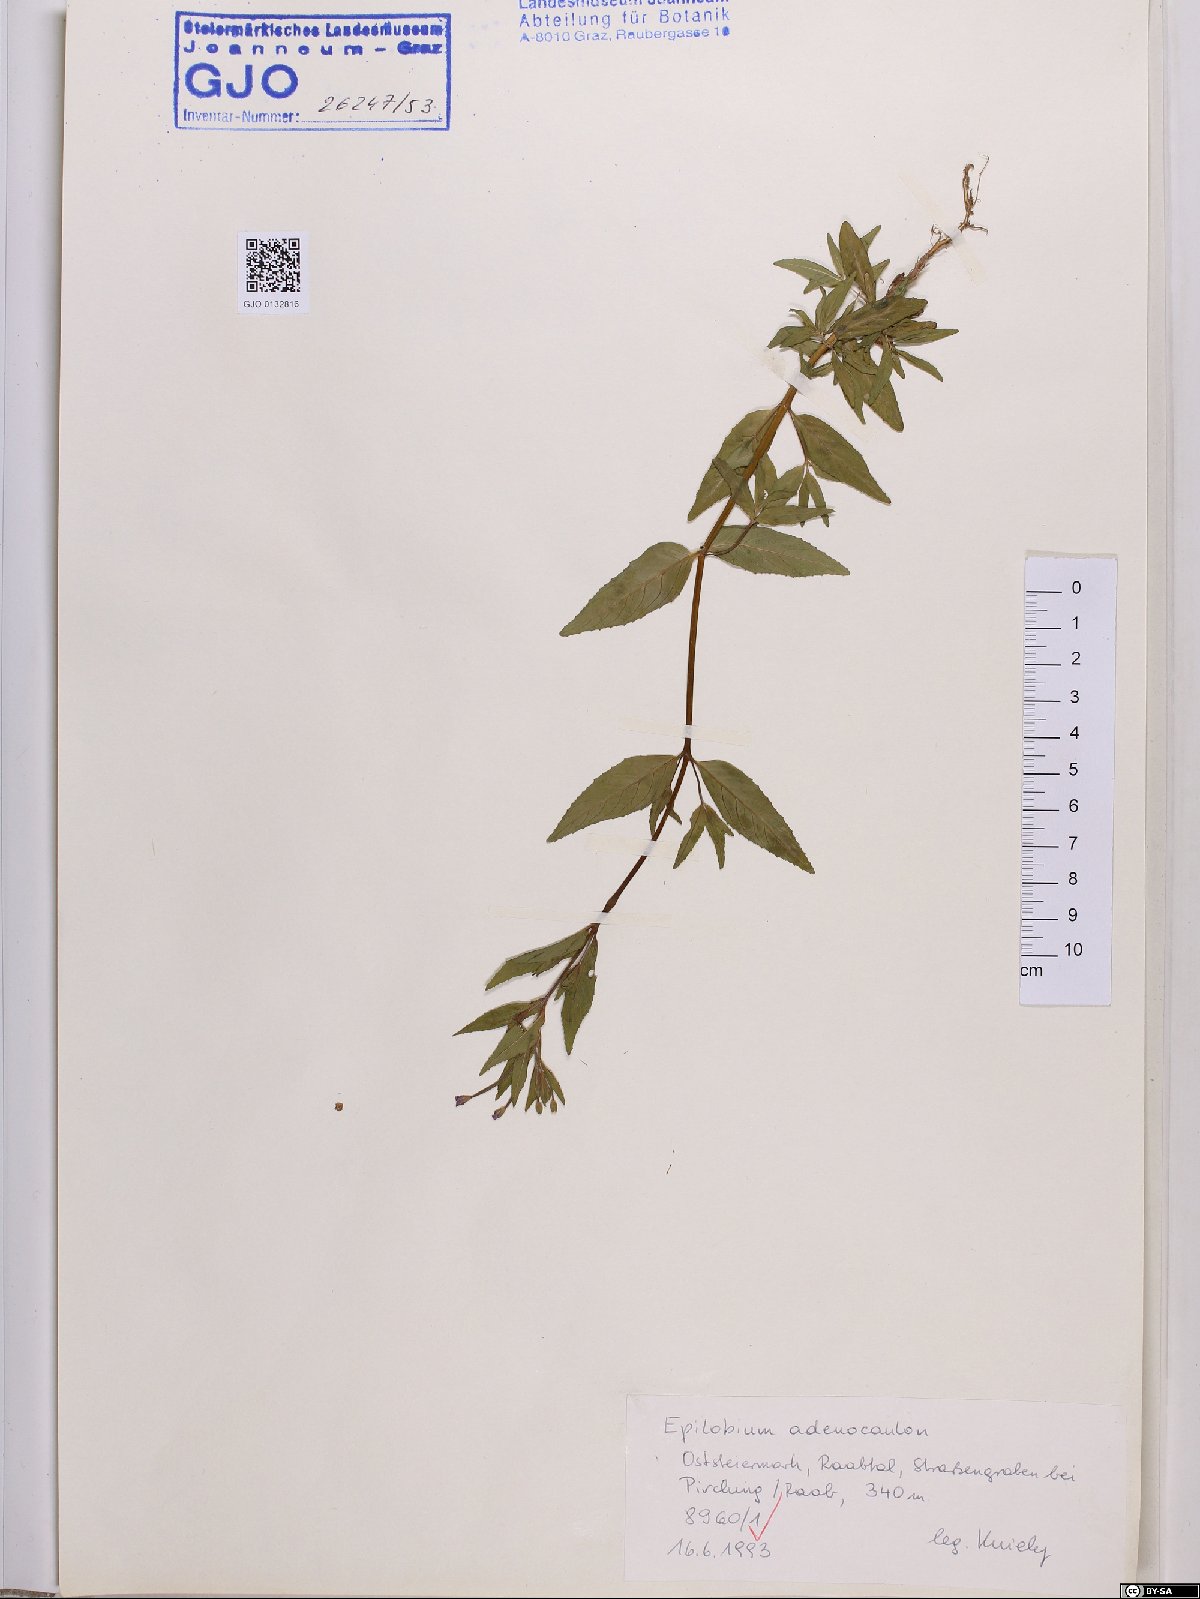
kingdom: Plantae
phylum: Tracheophyta
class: Magnoliopsida
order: Myrtales
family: Onagraceae
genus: Epilobium
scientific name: Epilobium ciliatum
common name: American willowherb
